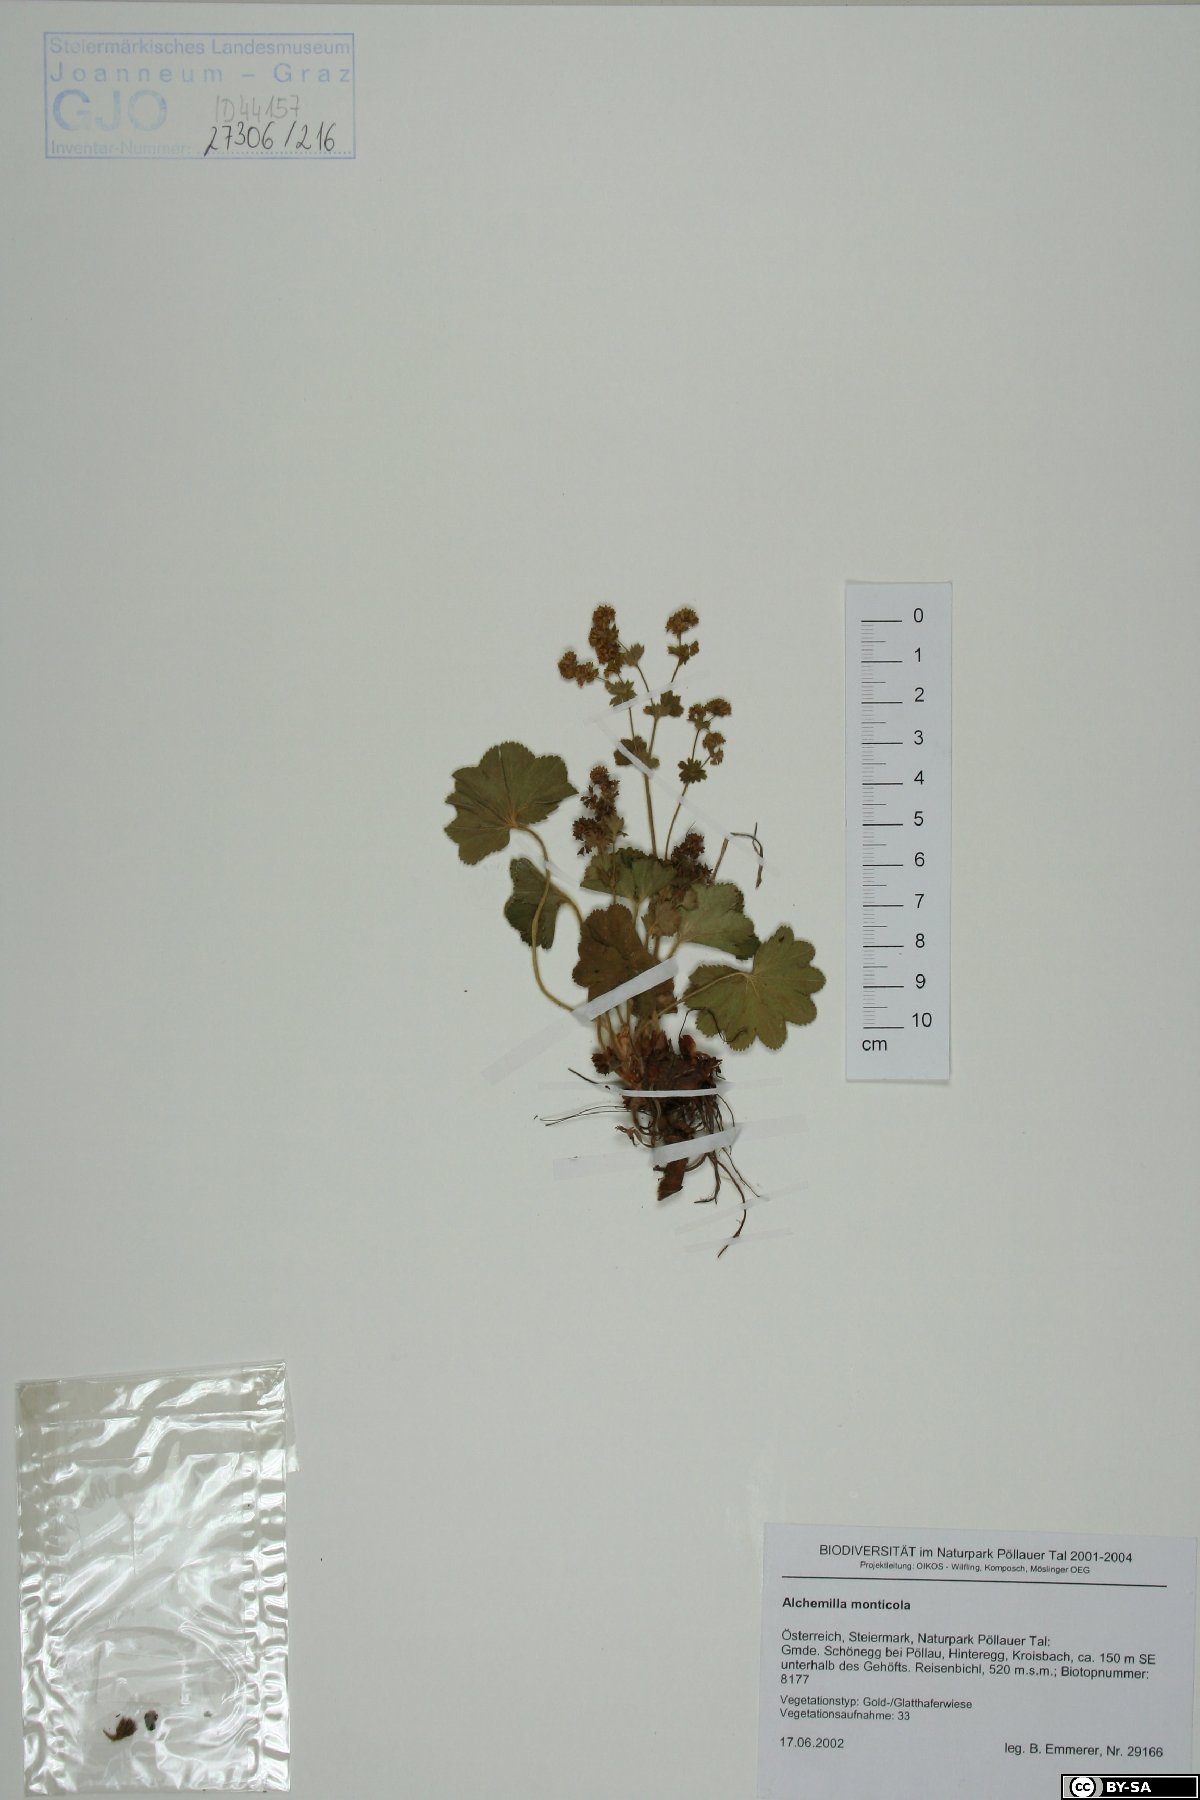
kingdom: Plantae
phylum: Tracheophyta
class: Magnoliopsida
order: Rosales
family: Rosaceae
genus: Alchemilla
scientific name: Alchemilla monticola
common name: Hairy lady's mantle
